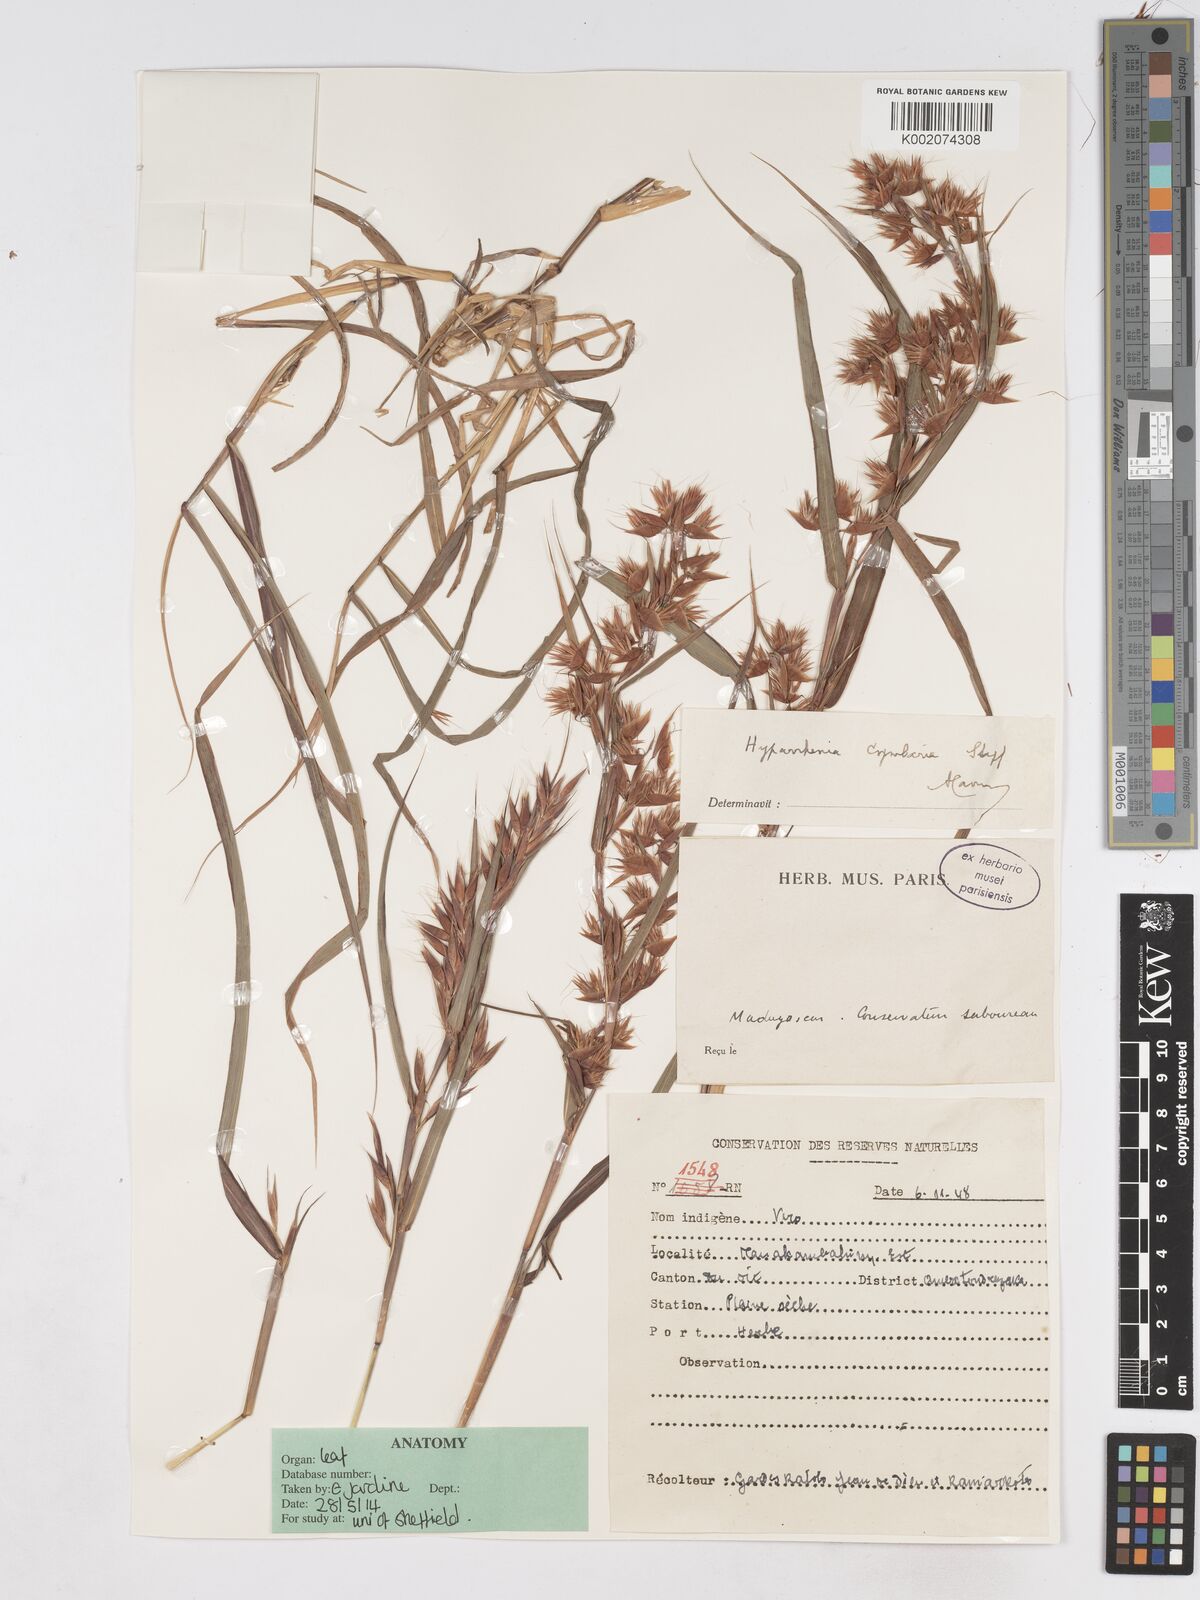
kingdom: Plantae
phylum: Tracheophyta
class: Liliopsida
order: Poales
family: Poaceae
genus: Hyparrhenia
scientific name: Hyparrhenia cymbaria
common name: Boat thatching grass
